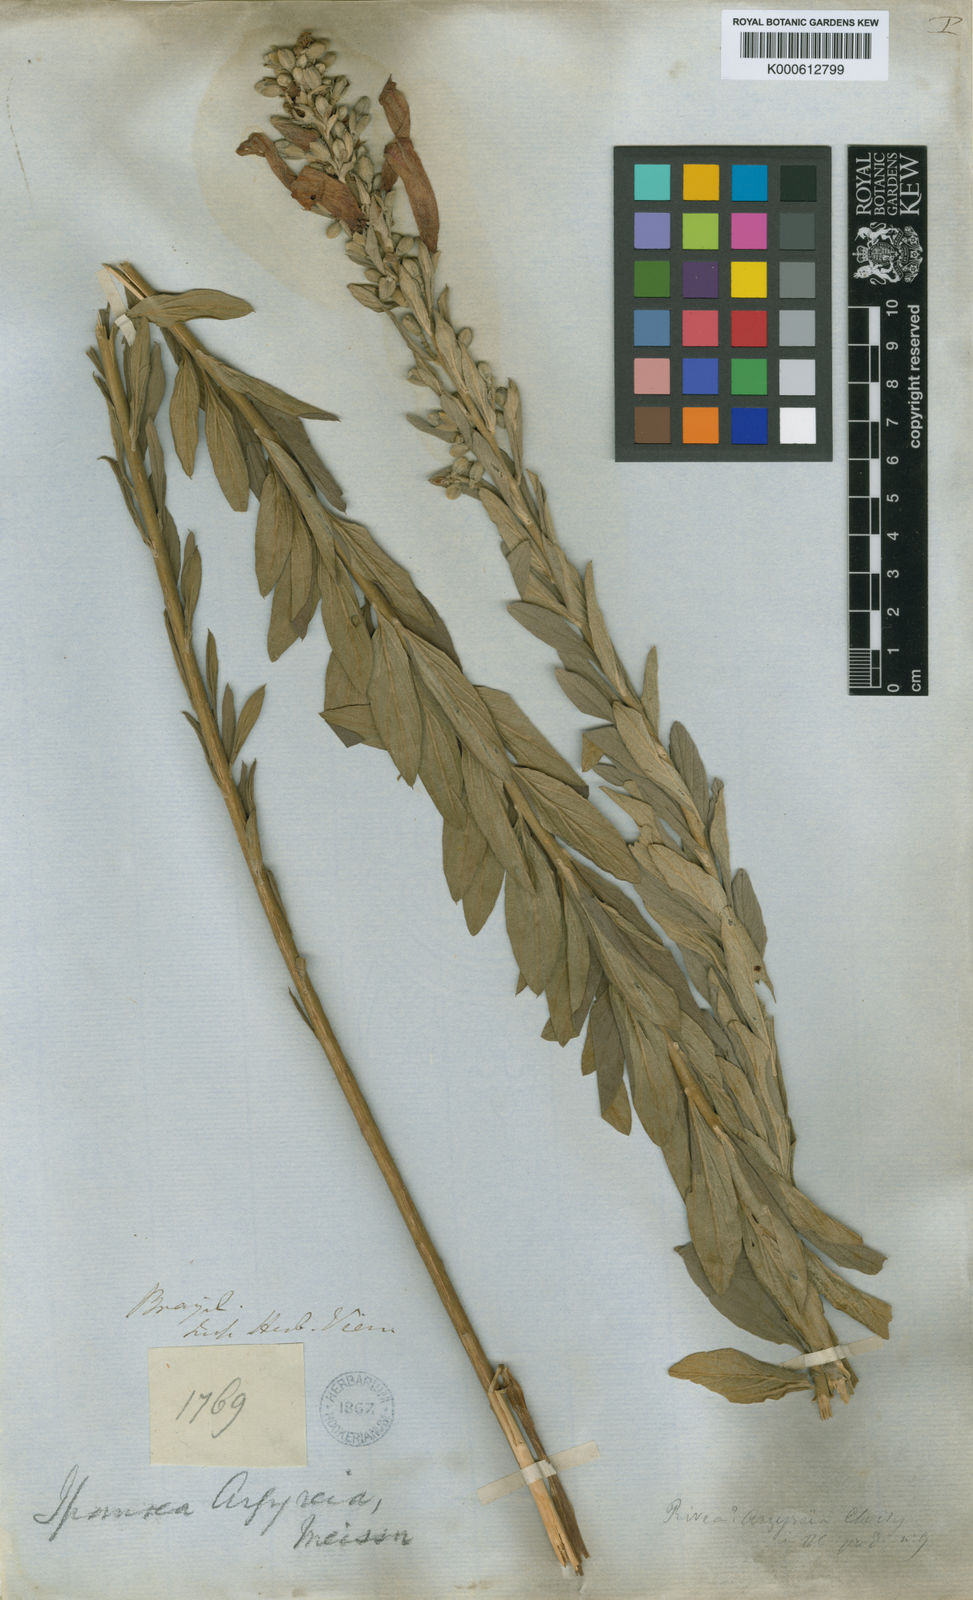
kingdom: Plantae
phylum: Tracheophyta
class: Magnoliopsida
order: Solanales
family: Convolvulaceae
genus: Ipomoea
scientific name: Ipomoea argyreia
